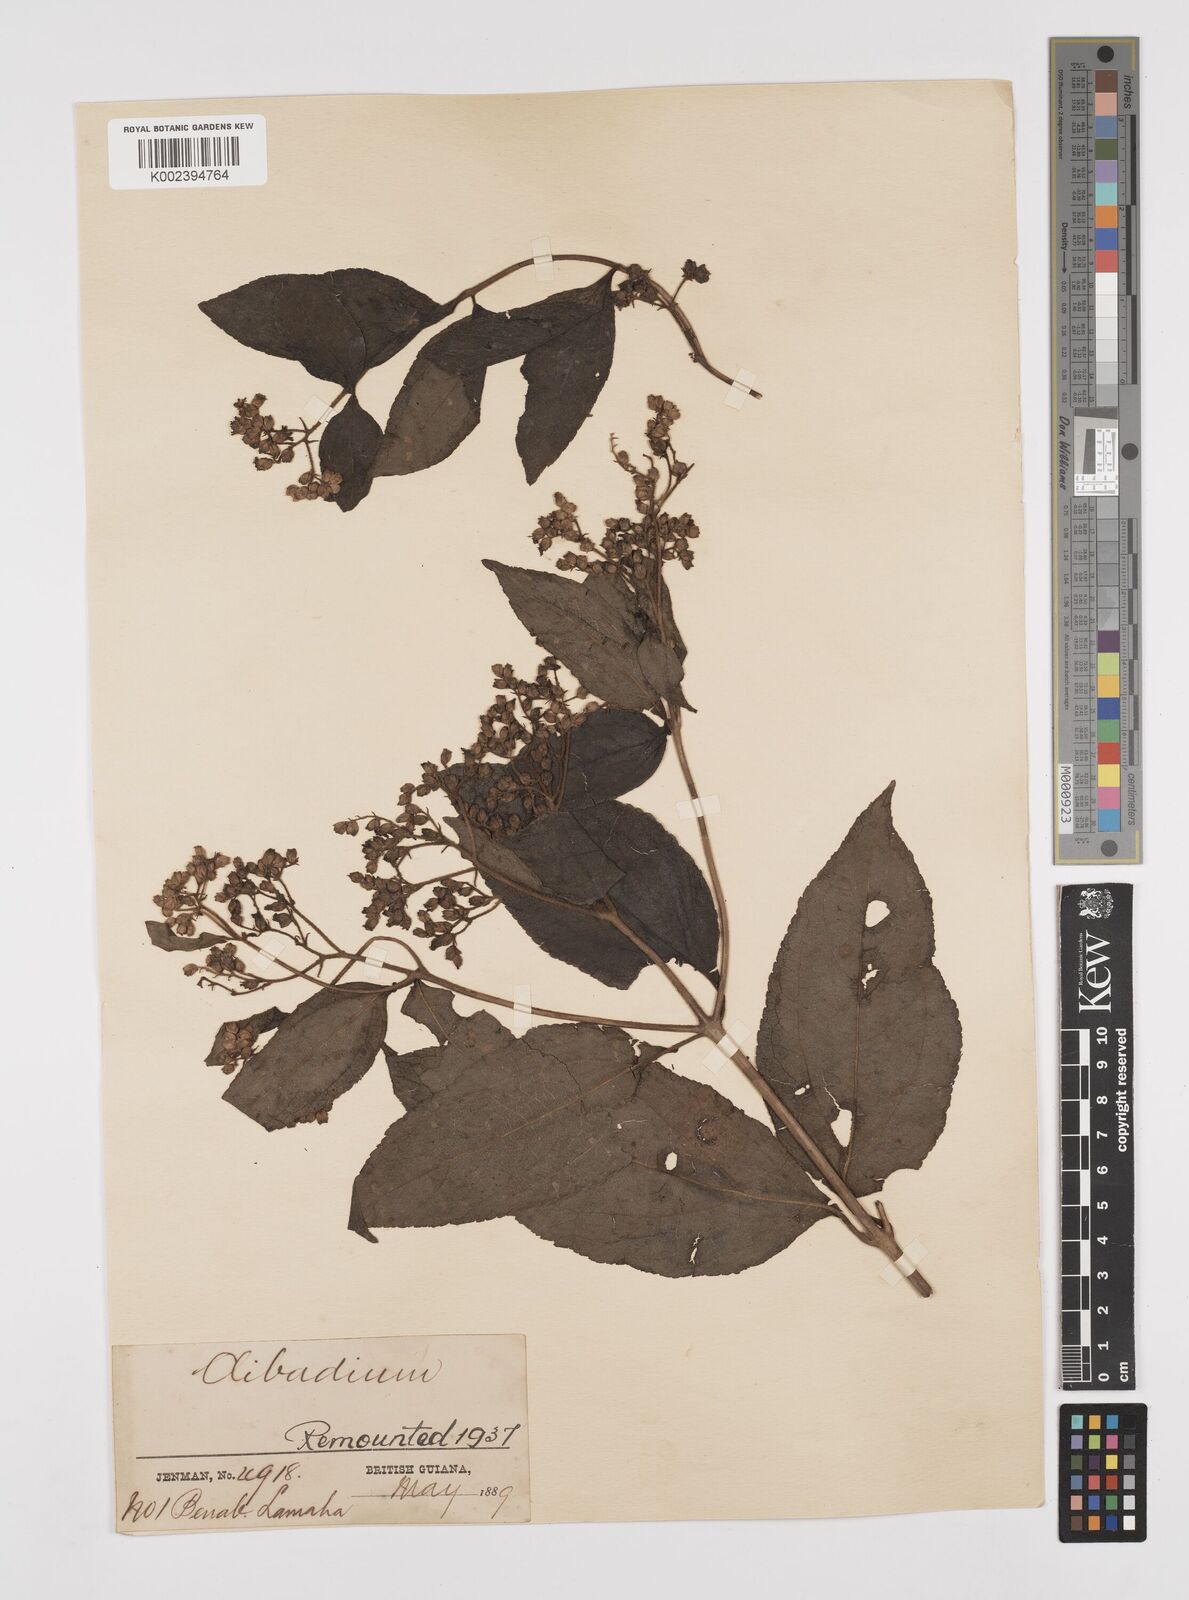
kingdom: Plantae
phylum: Tracheophyta
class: Magnoliopsida
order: Asterales
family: Asteraceae
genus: Clibadium
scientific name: Clibadium surinamense
